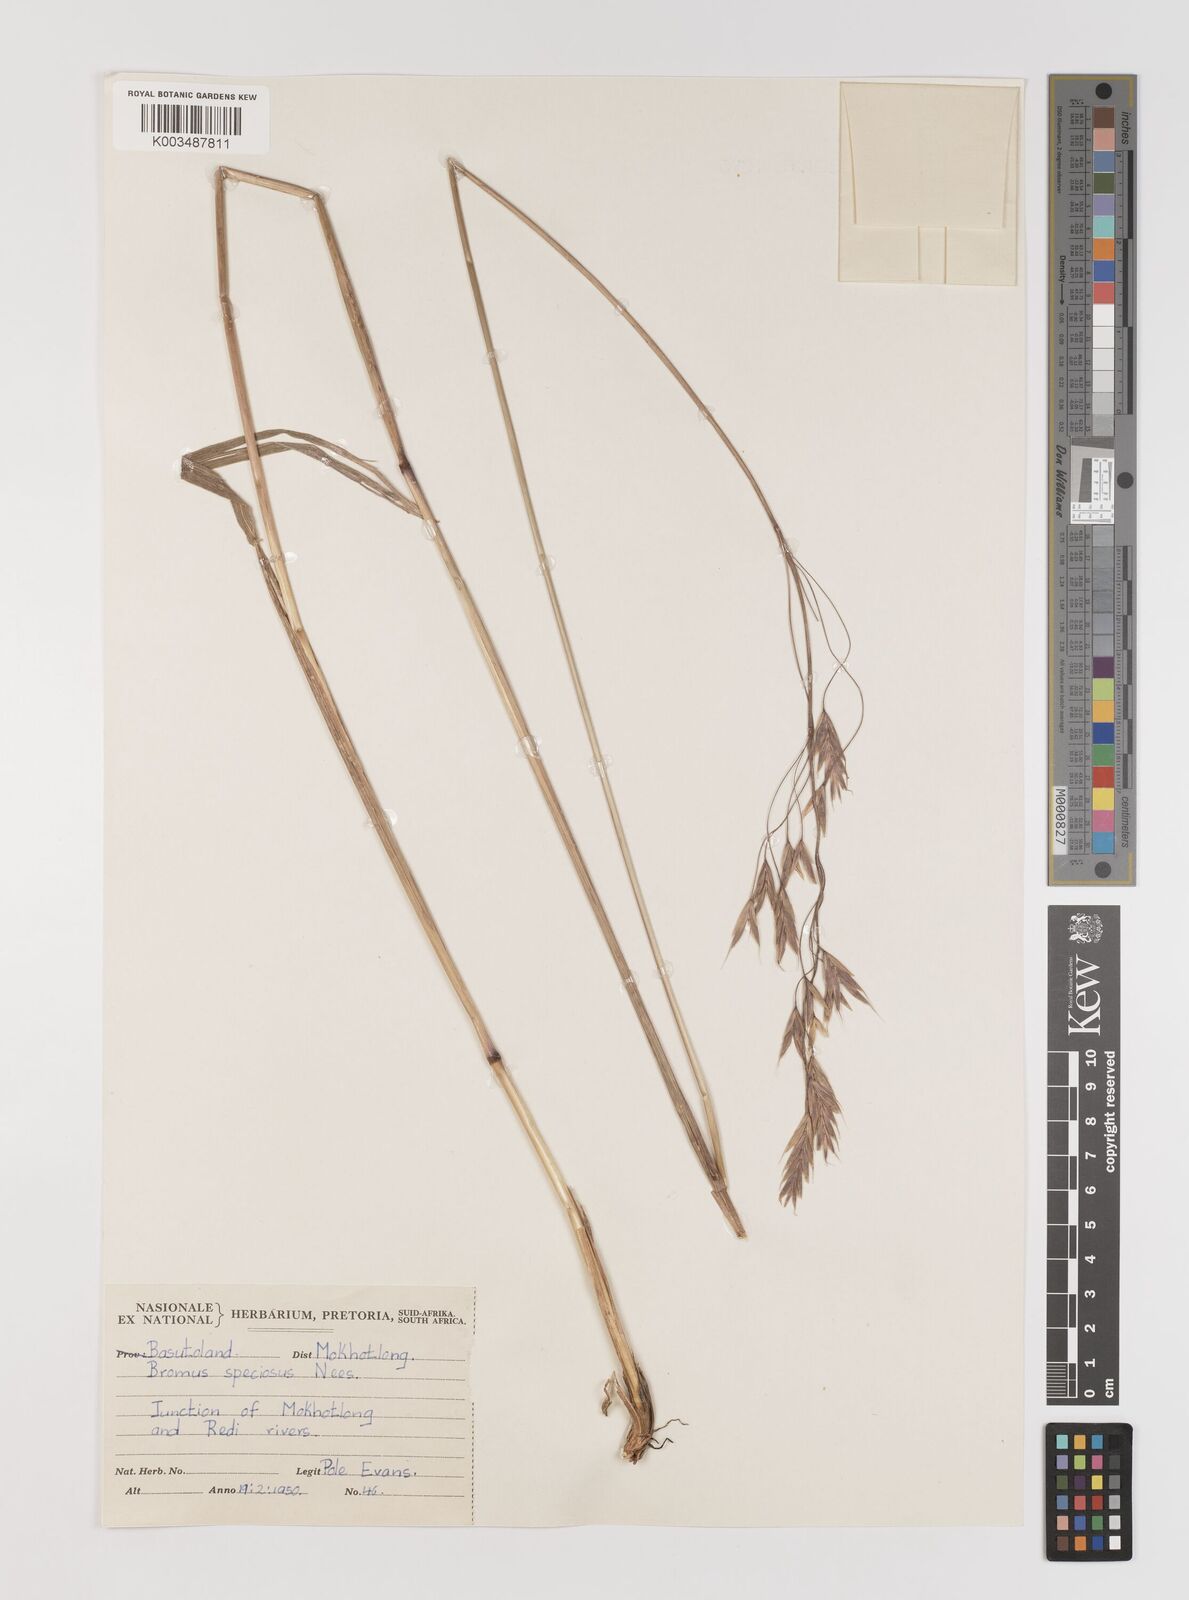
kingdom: Plantae
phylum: Tracheophyta
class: Liliopsida
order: Poales
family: Poaceae
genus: Bromus
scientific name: Bromus speciosus
